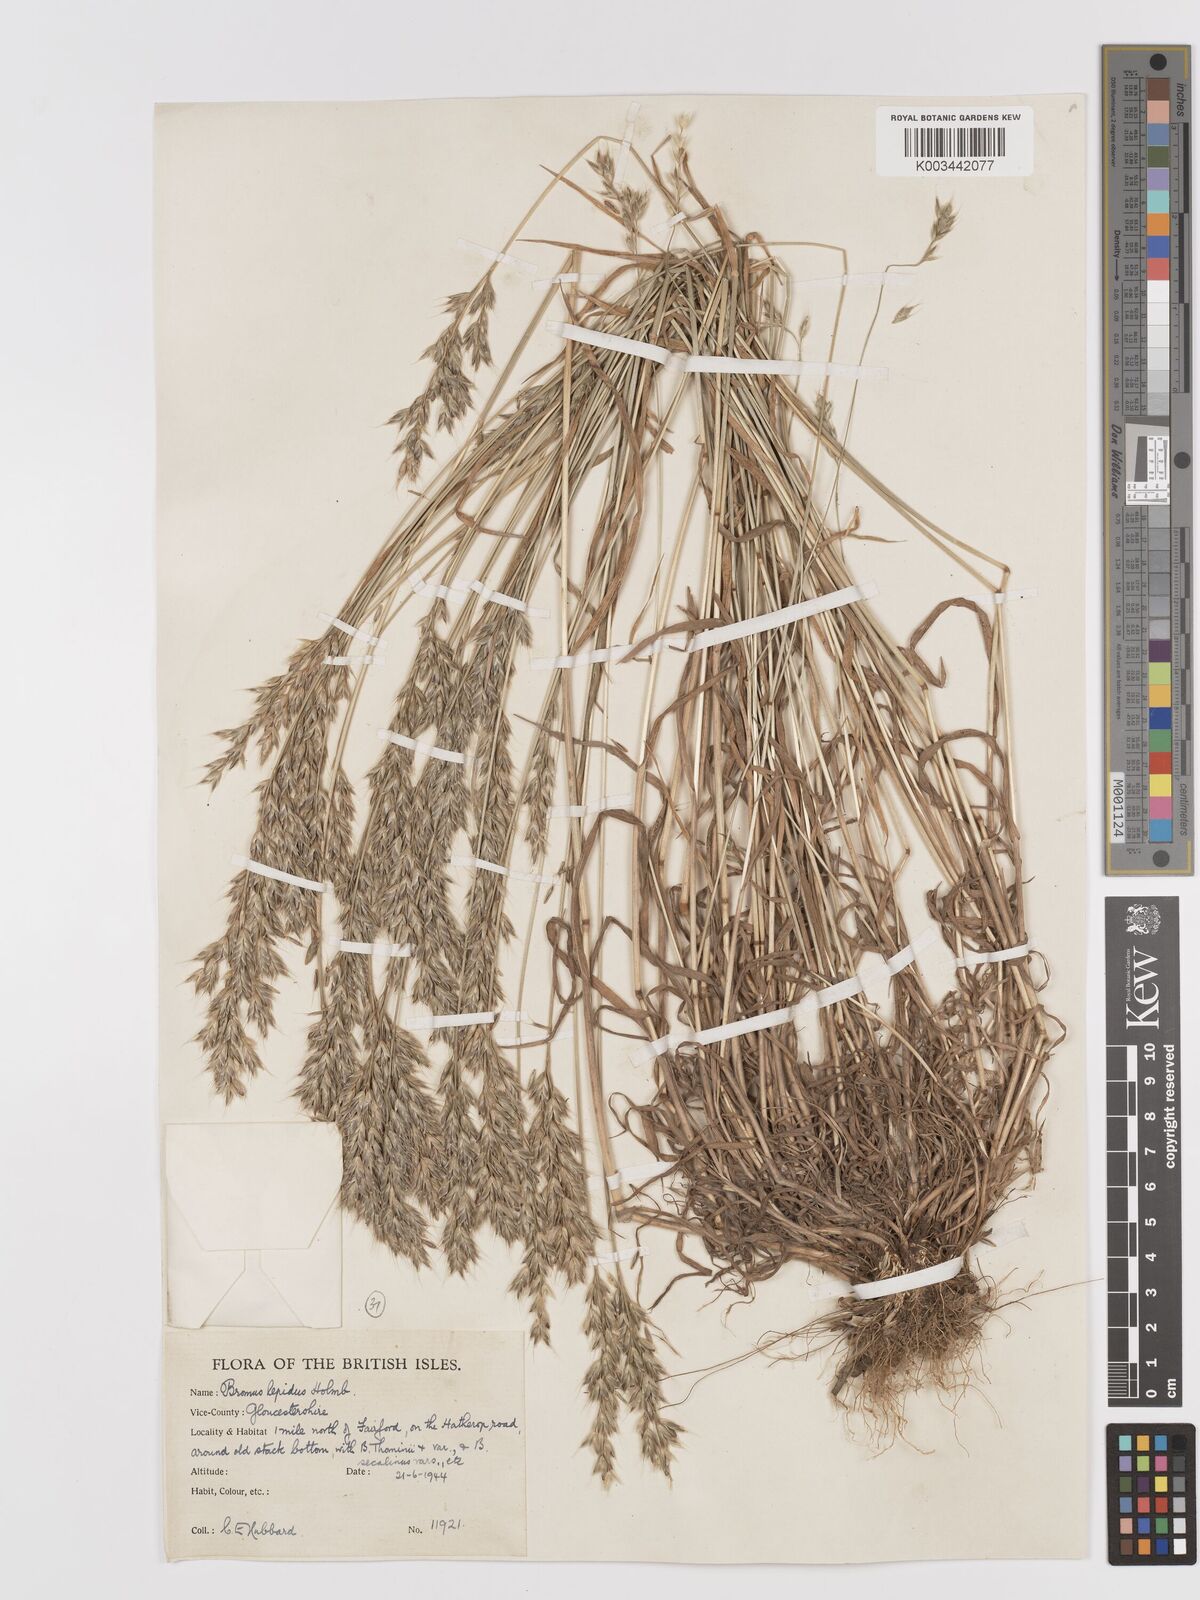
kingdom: Plantae
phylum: Tracheophyta
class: Liliopsida
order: Poales
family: Poaceae
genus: Bromus
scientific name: Bromus lepidus
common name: Slender soft-brome
